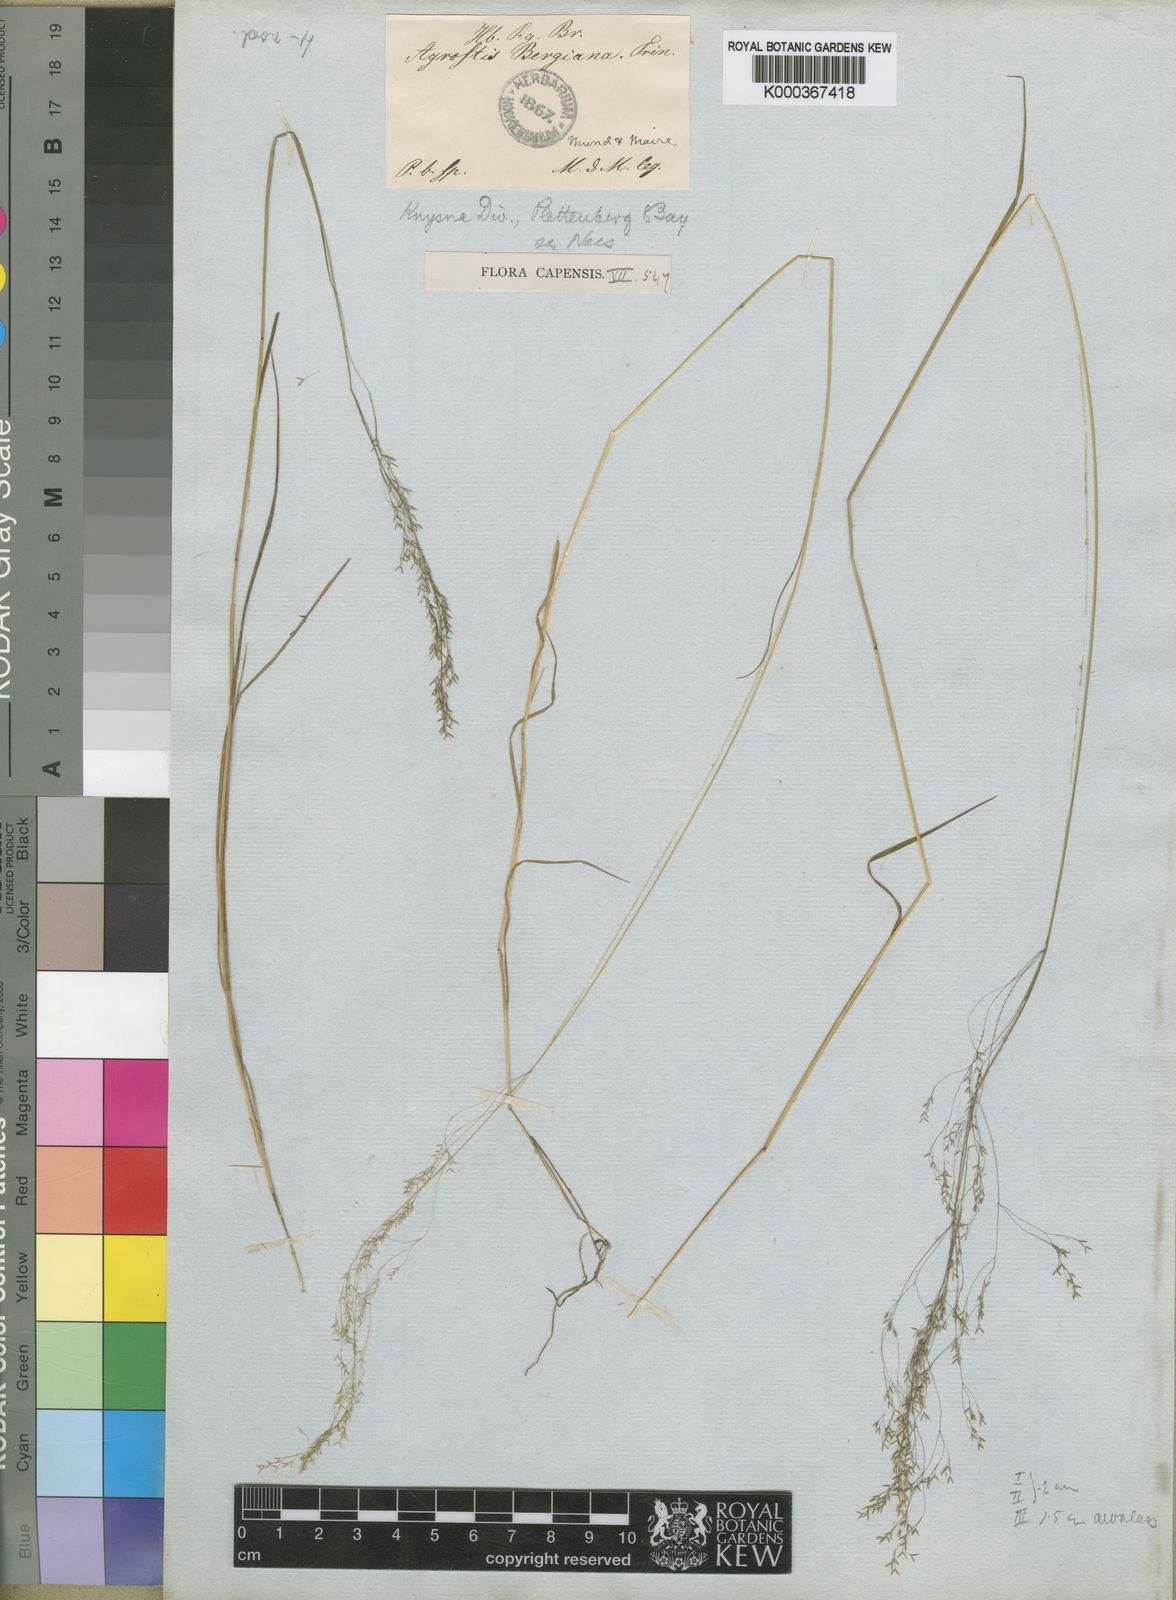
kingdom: Plantae
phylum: Tracheophyta
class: Liliopsida
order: Poales
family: Poaceae
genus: Agrostis
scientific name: Agrostis bergiana
